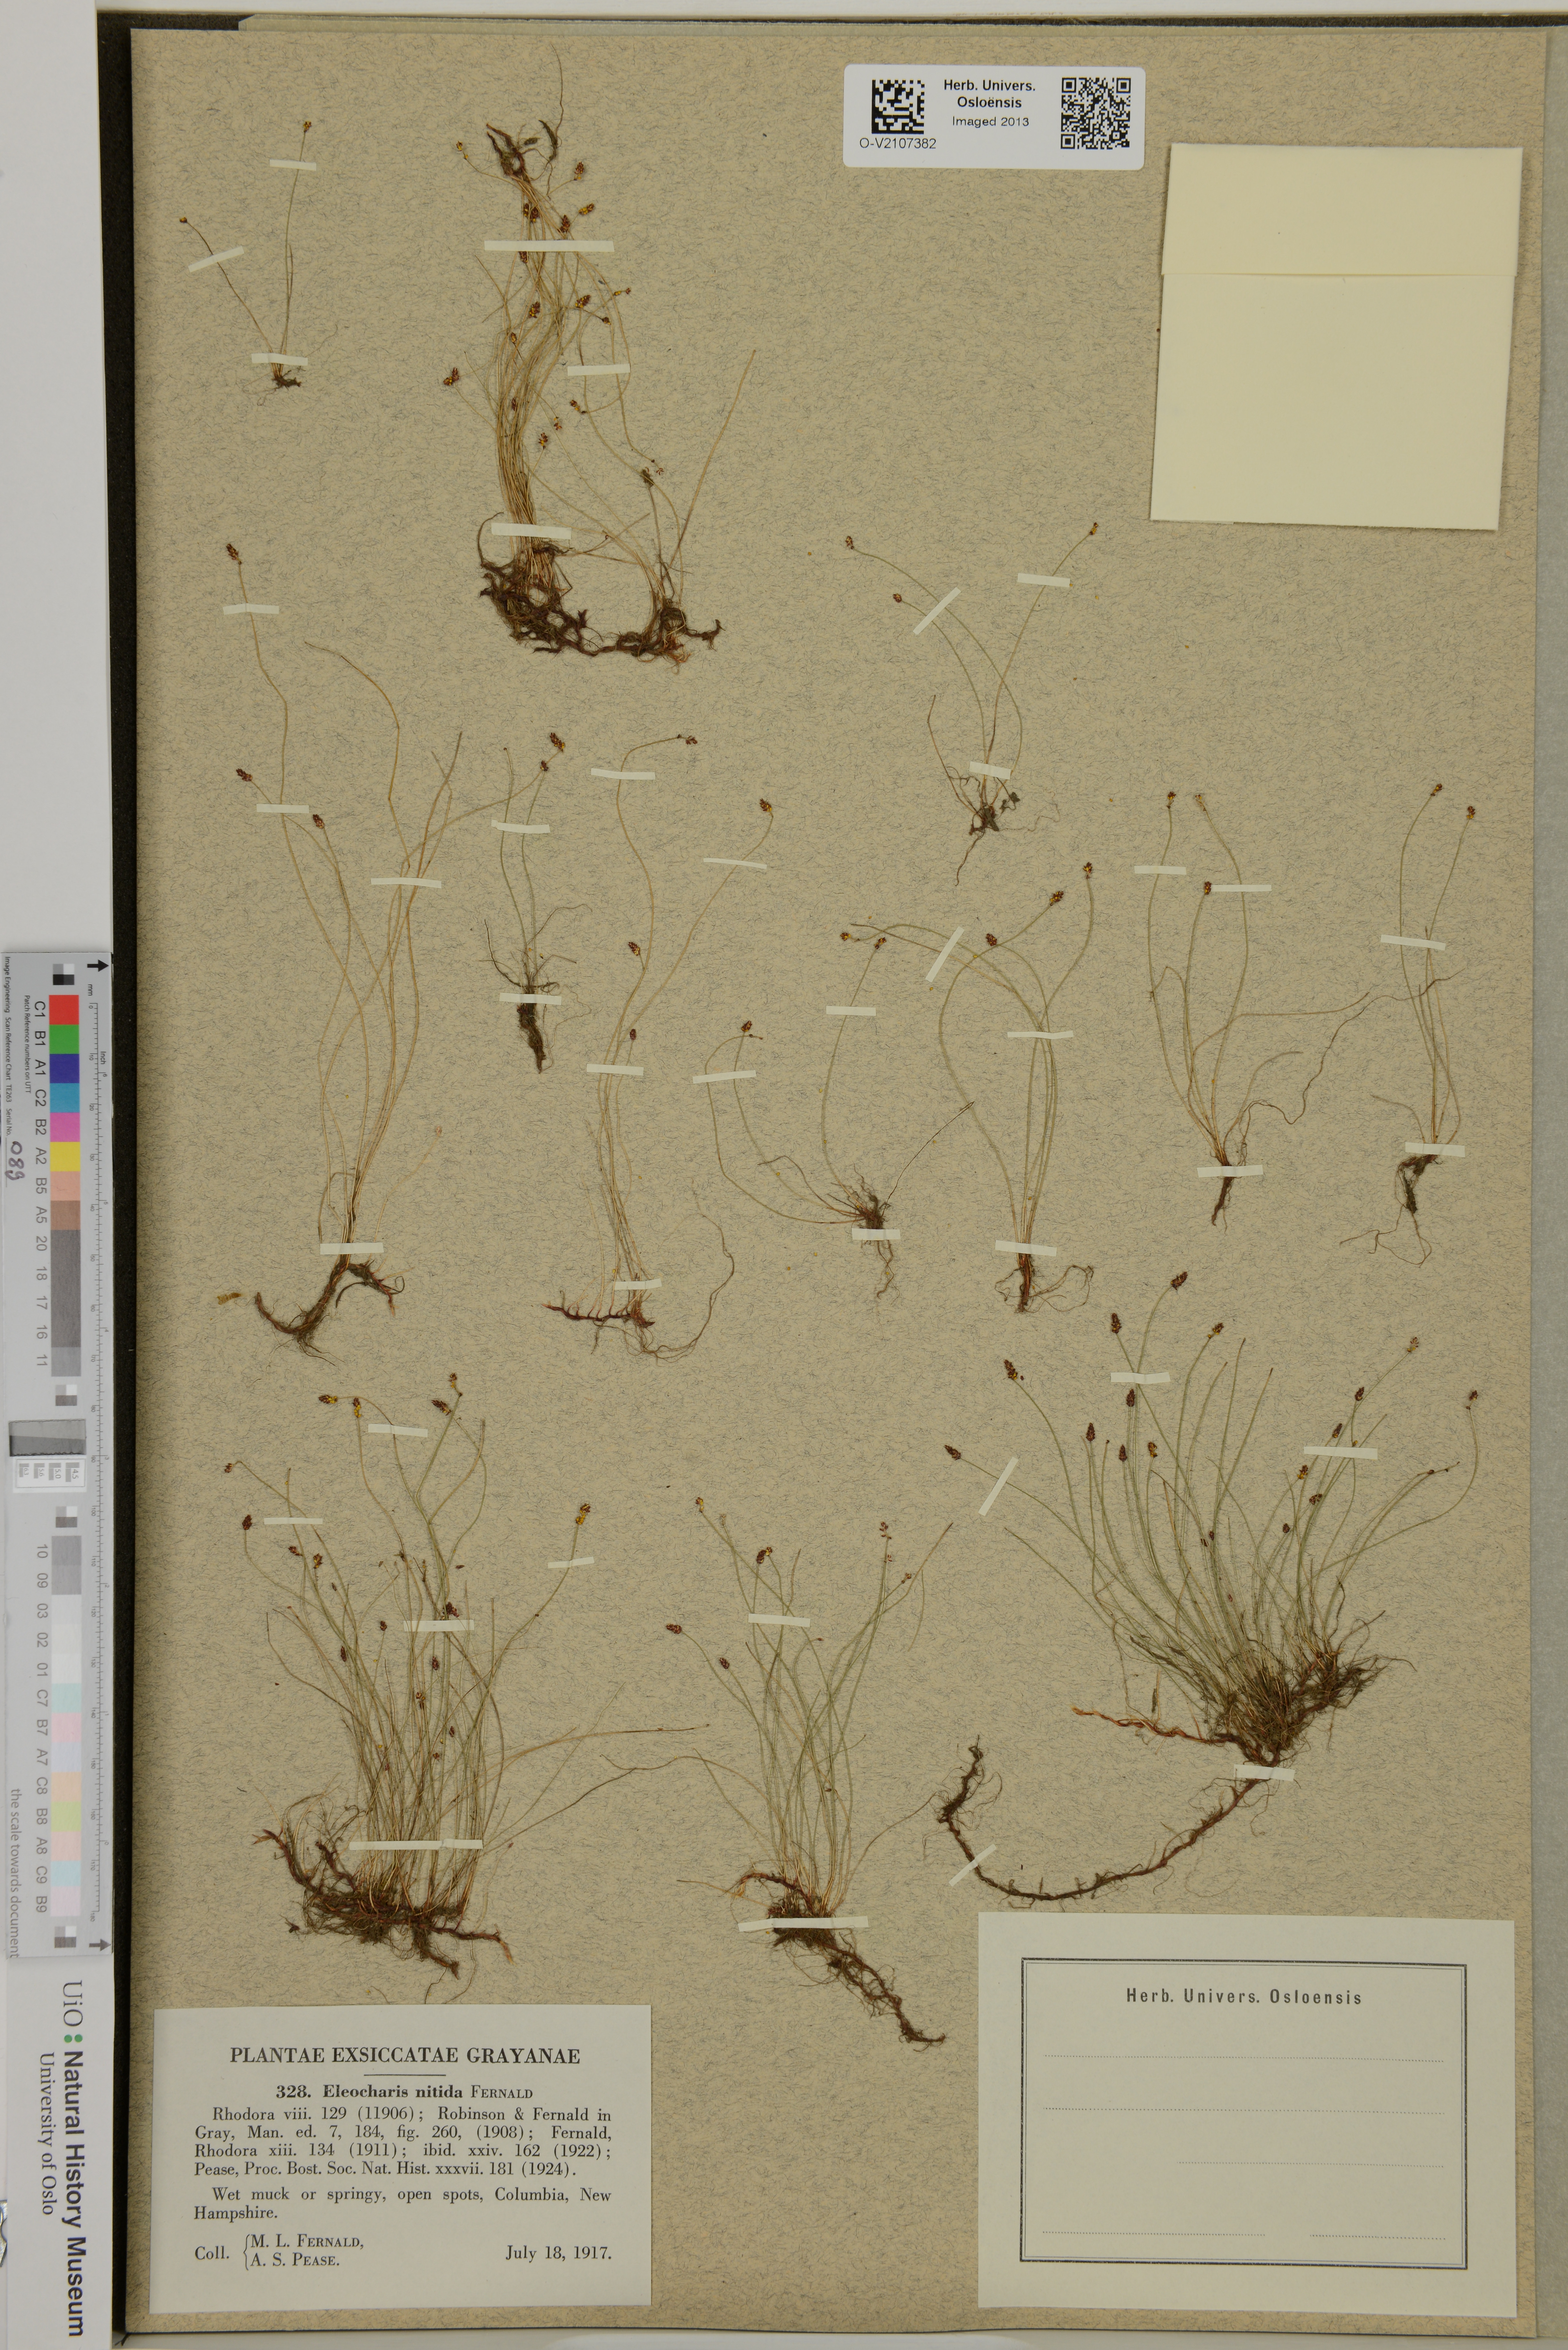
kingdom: Plantae
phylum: Tracheophyta
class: Liliopsida
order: Poales
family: Cyperaceae
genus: Eleocharis
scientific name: Eleocharis nitida
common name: Neat spikerush
